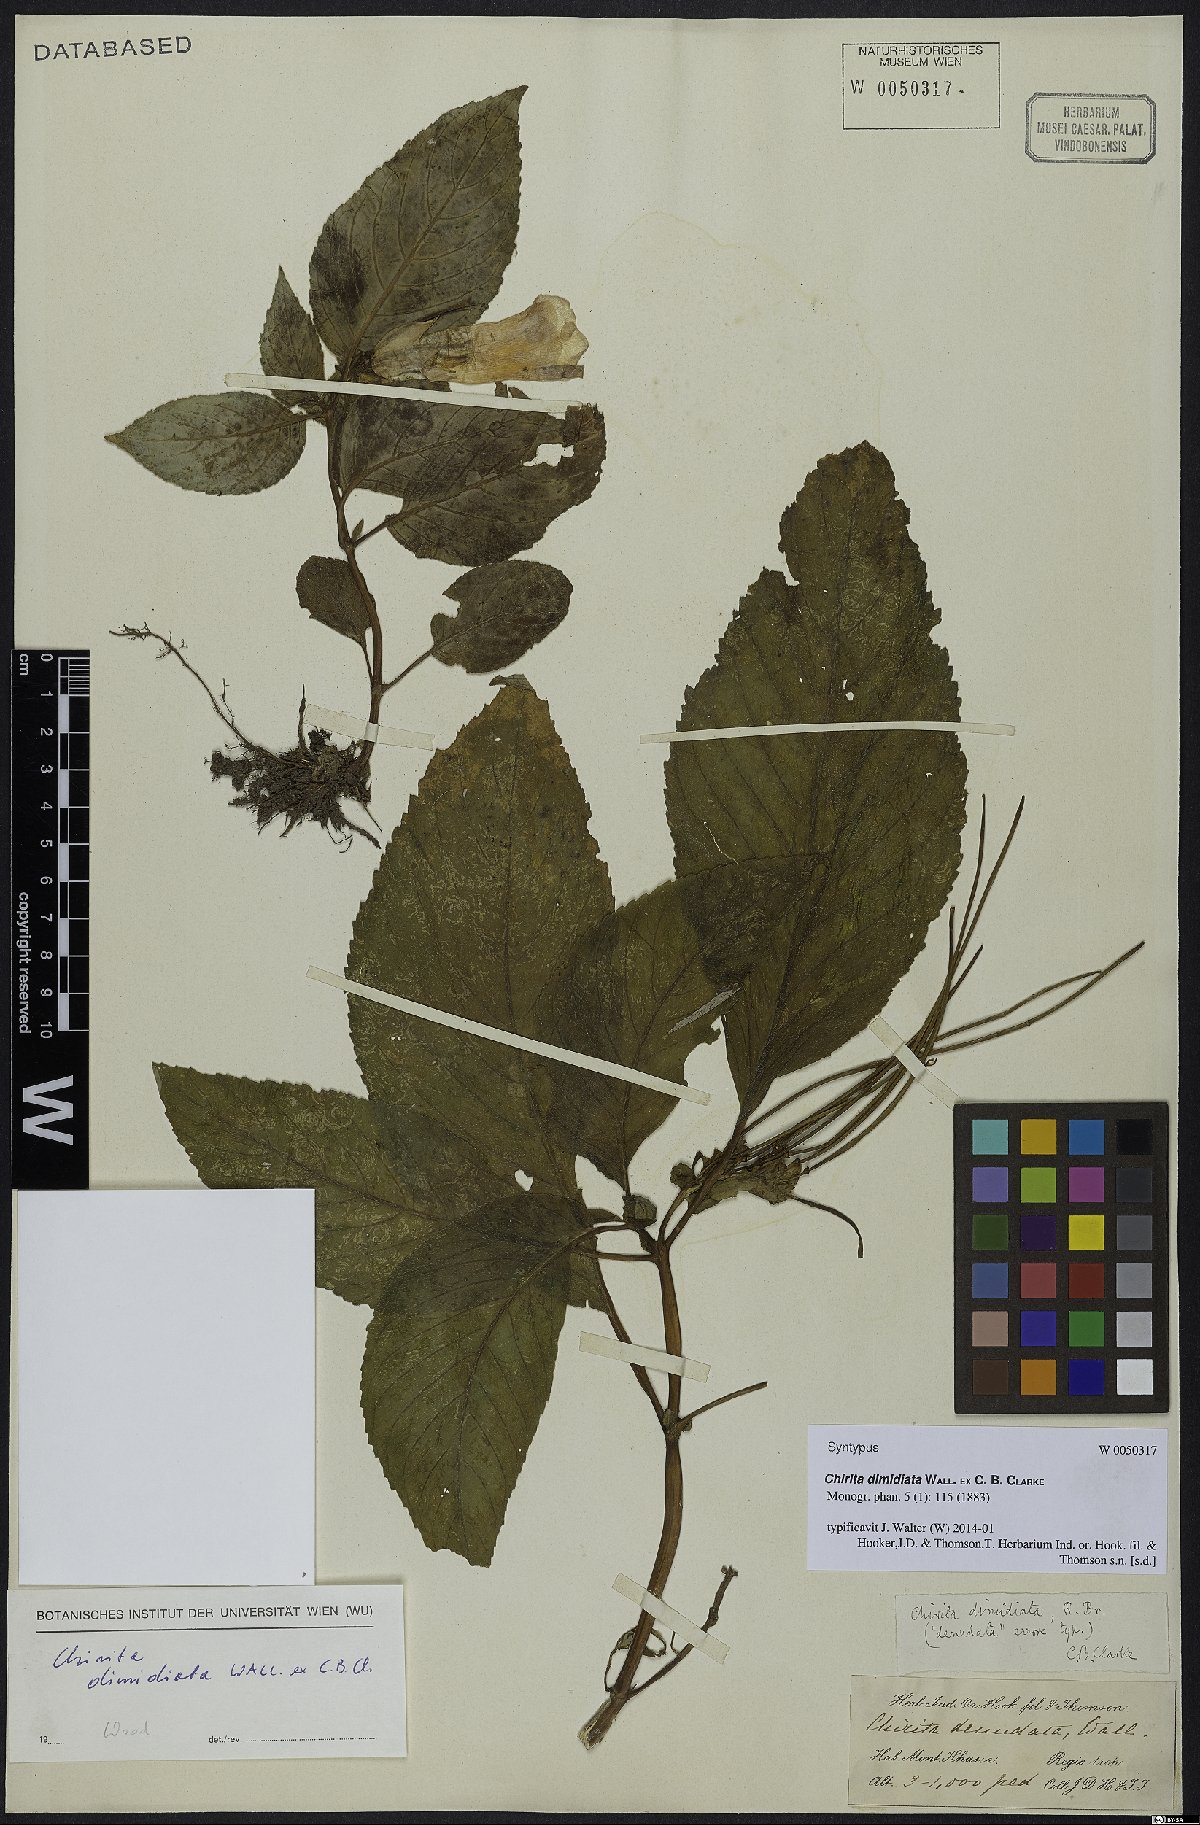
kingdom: Plantae
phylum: Tracheophyta
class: Magnoliopsida
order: Lamiales
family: Gesneriaceae
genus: Henckelia
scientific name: Henckelia dimidiata
